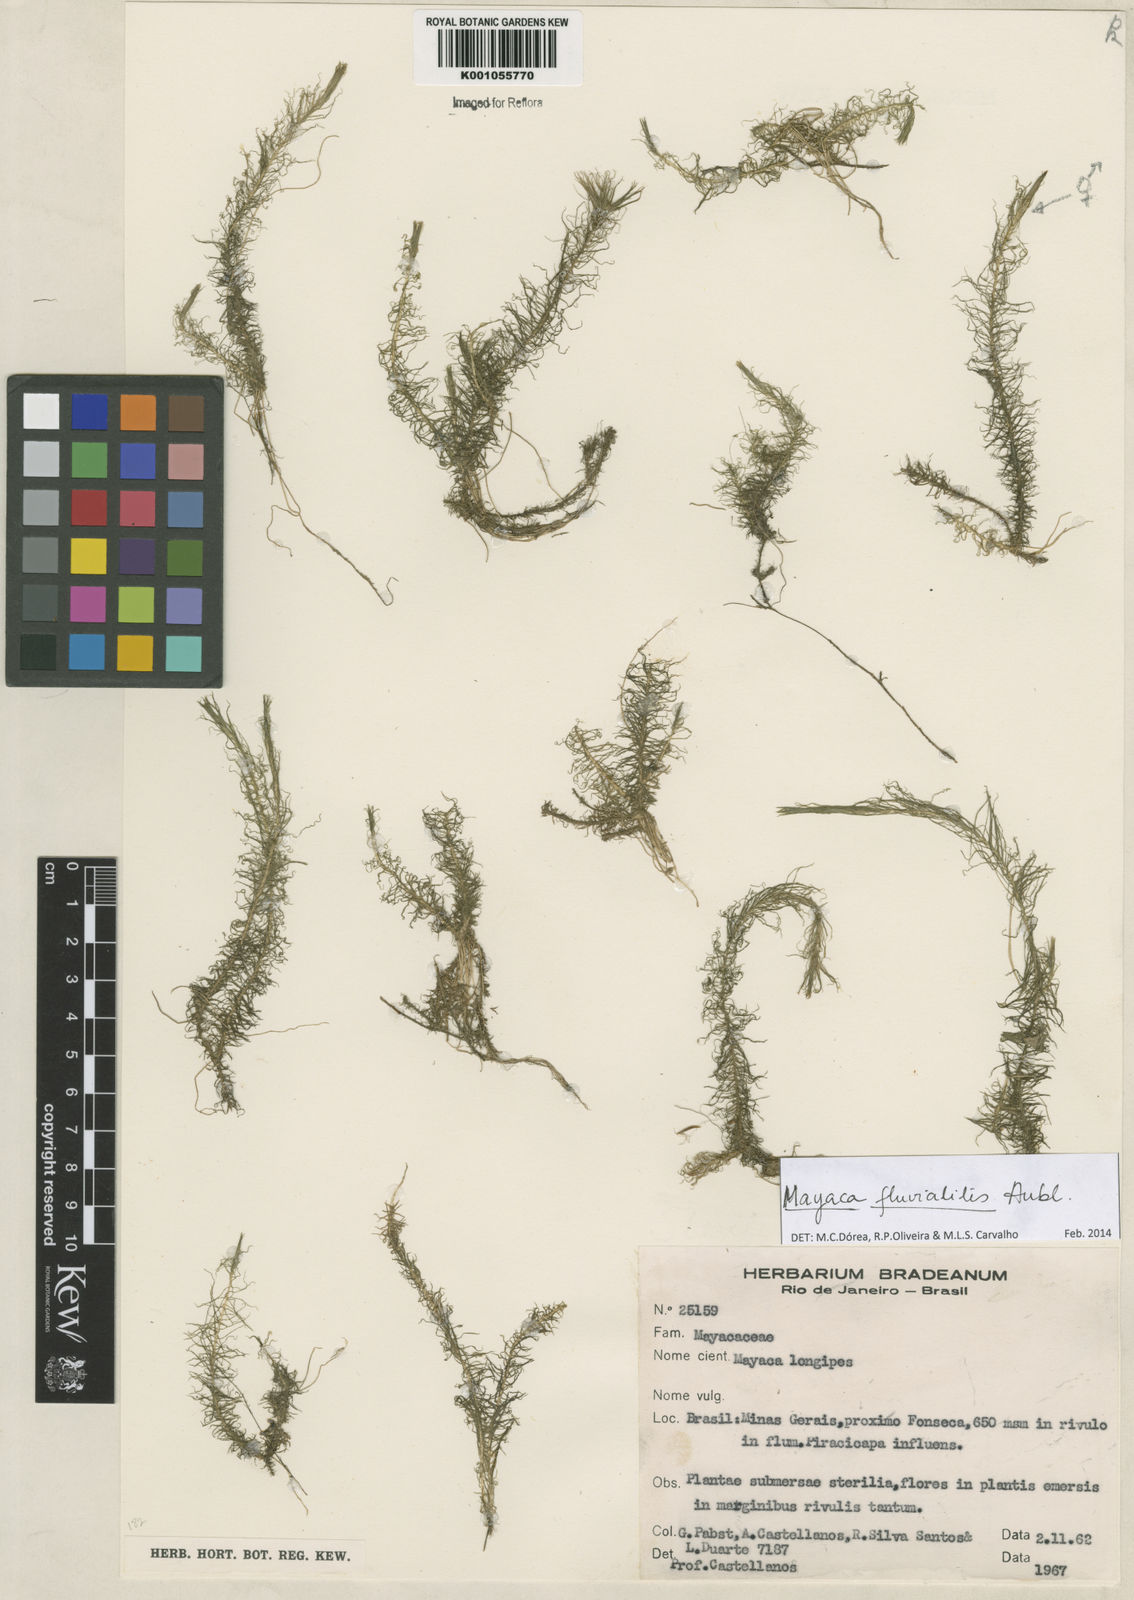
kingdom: Plantae
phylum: Tracheophyta
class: Liliopsida
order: Poales
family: Mayacaceae
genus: Mayaca
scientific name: Mayaca
